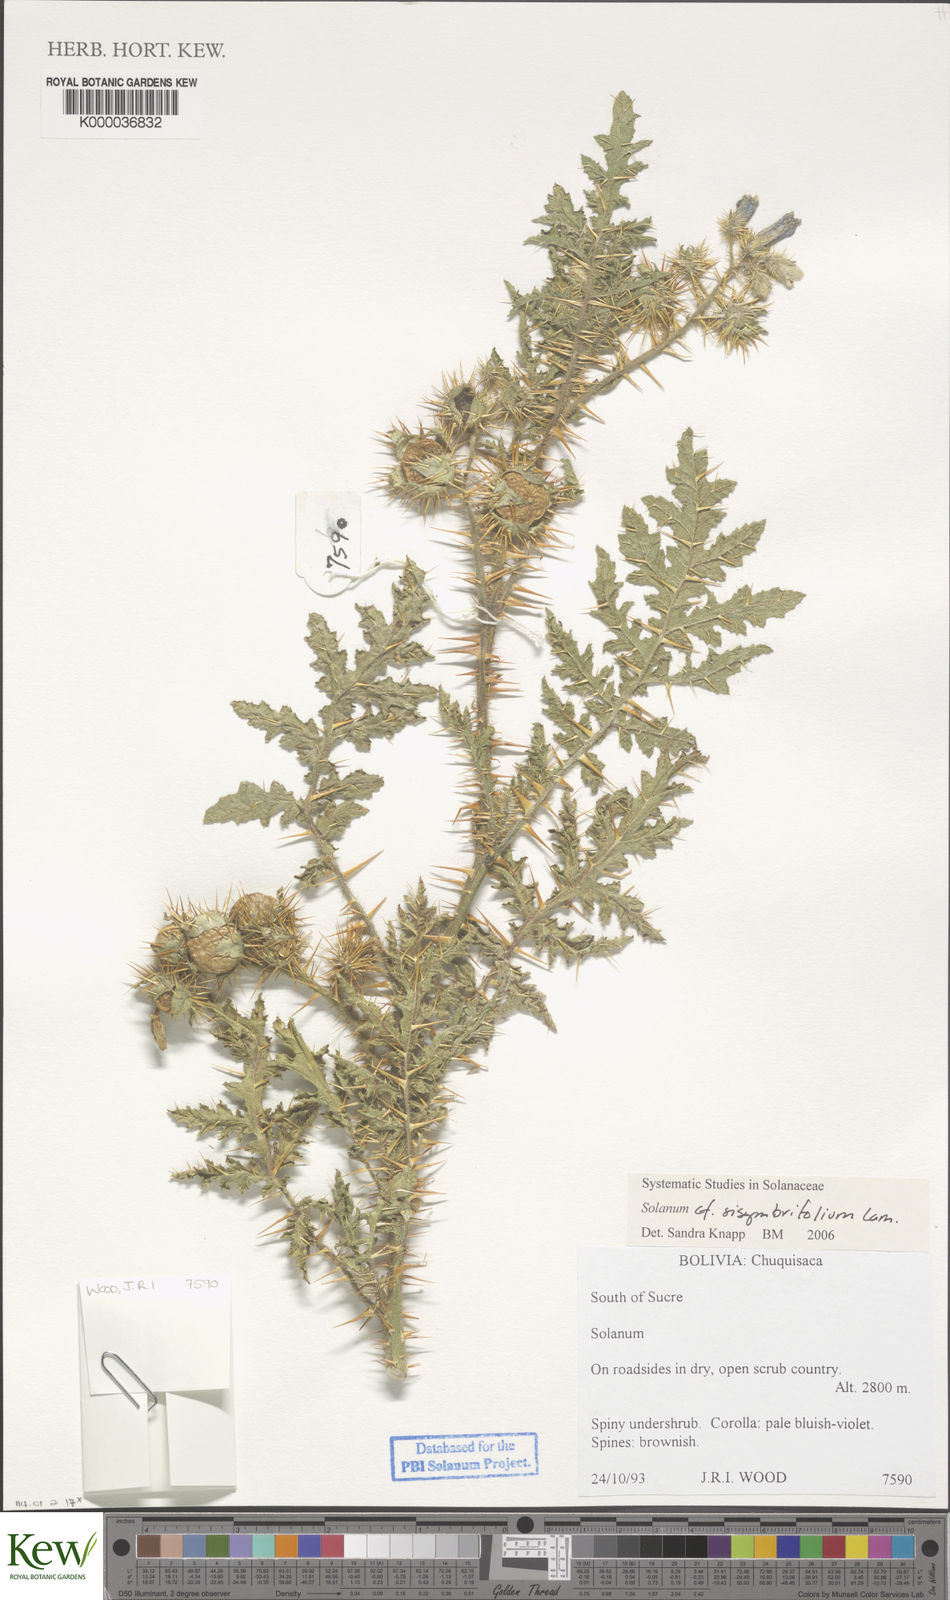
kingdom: Plantae
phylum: Tracheophyta
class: Magnoliopsida
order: Solanales
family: Solanaceae
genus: Solanum
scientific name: Solanum sisymbriifolium
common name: Red buffalo-bur
